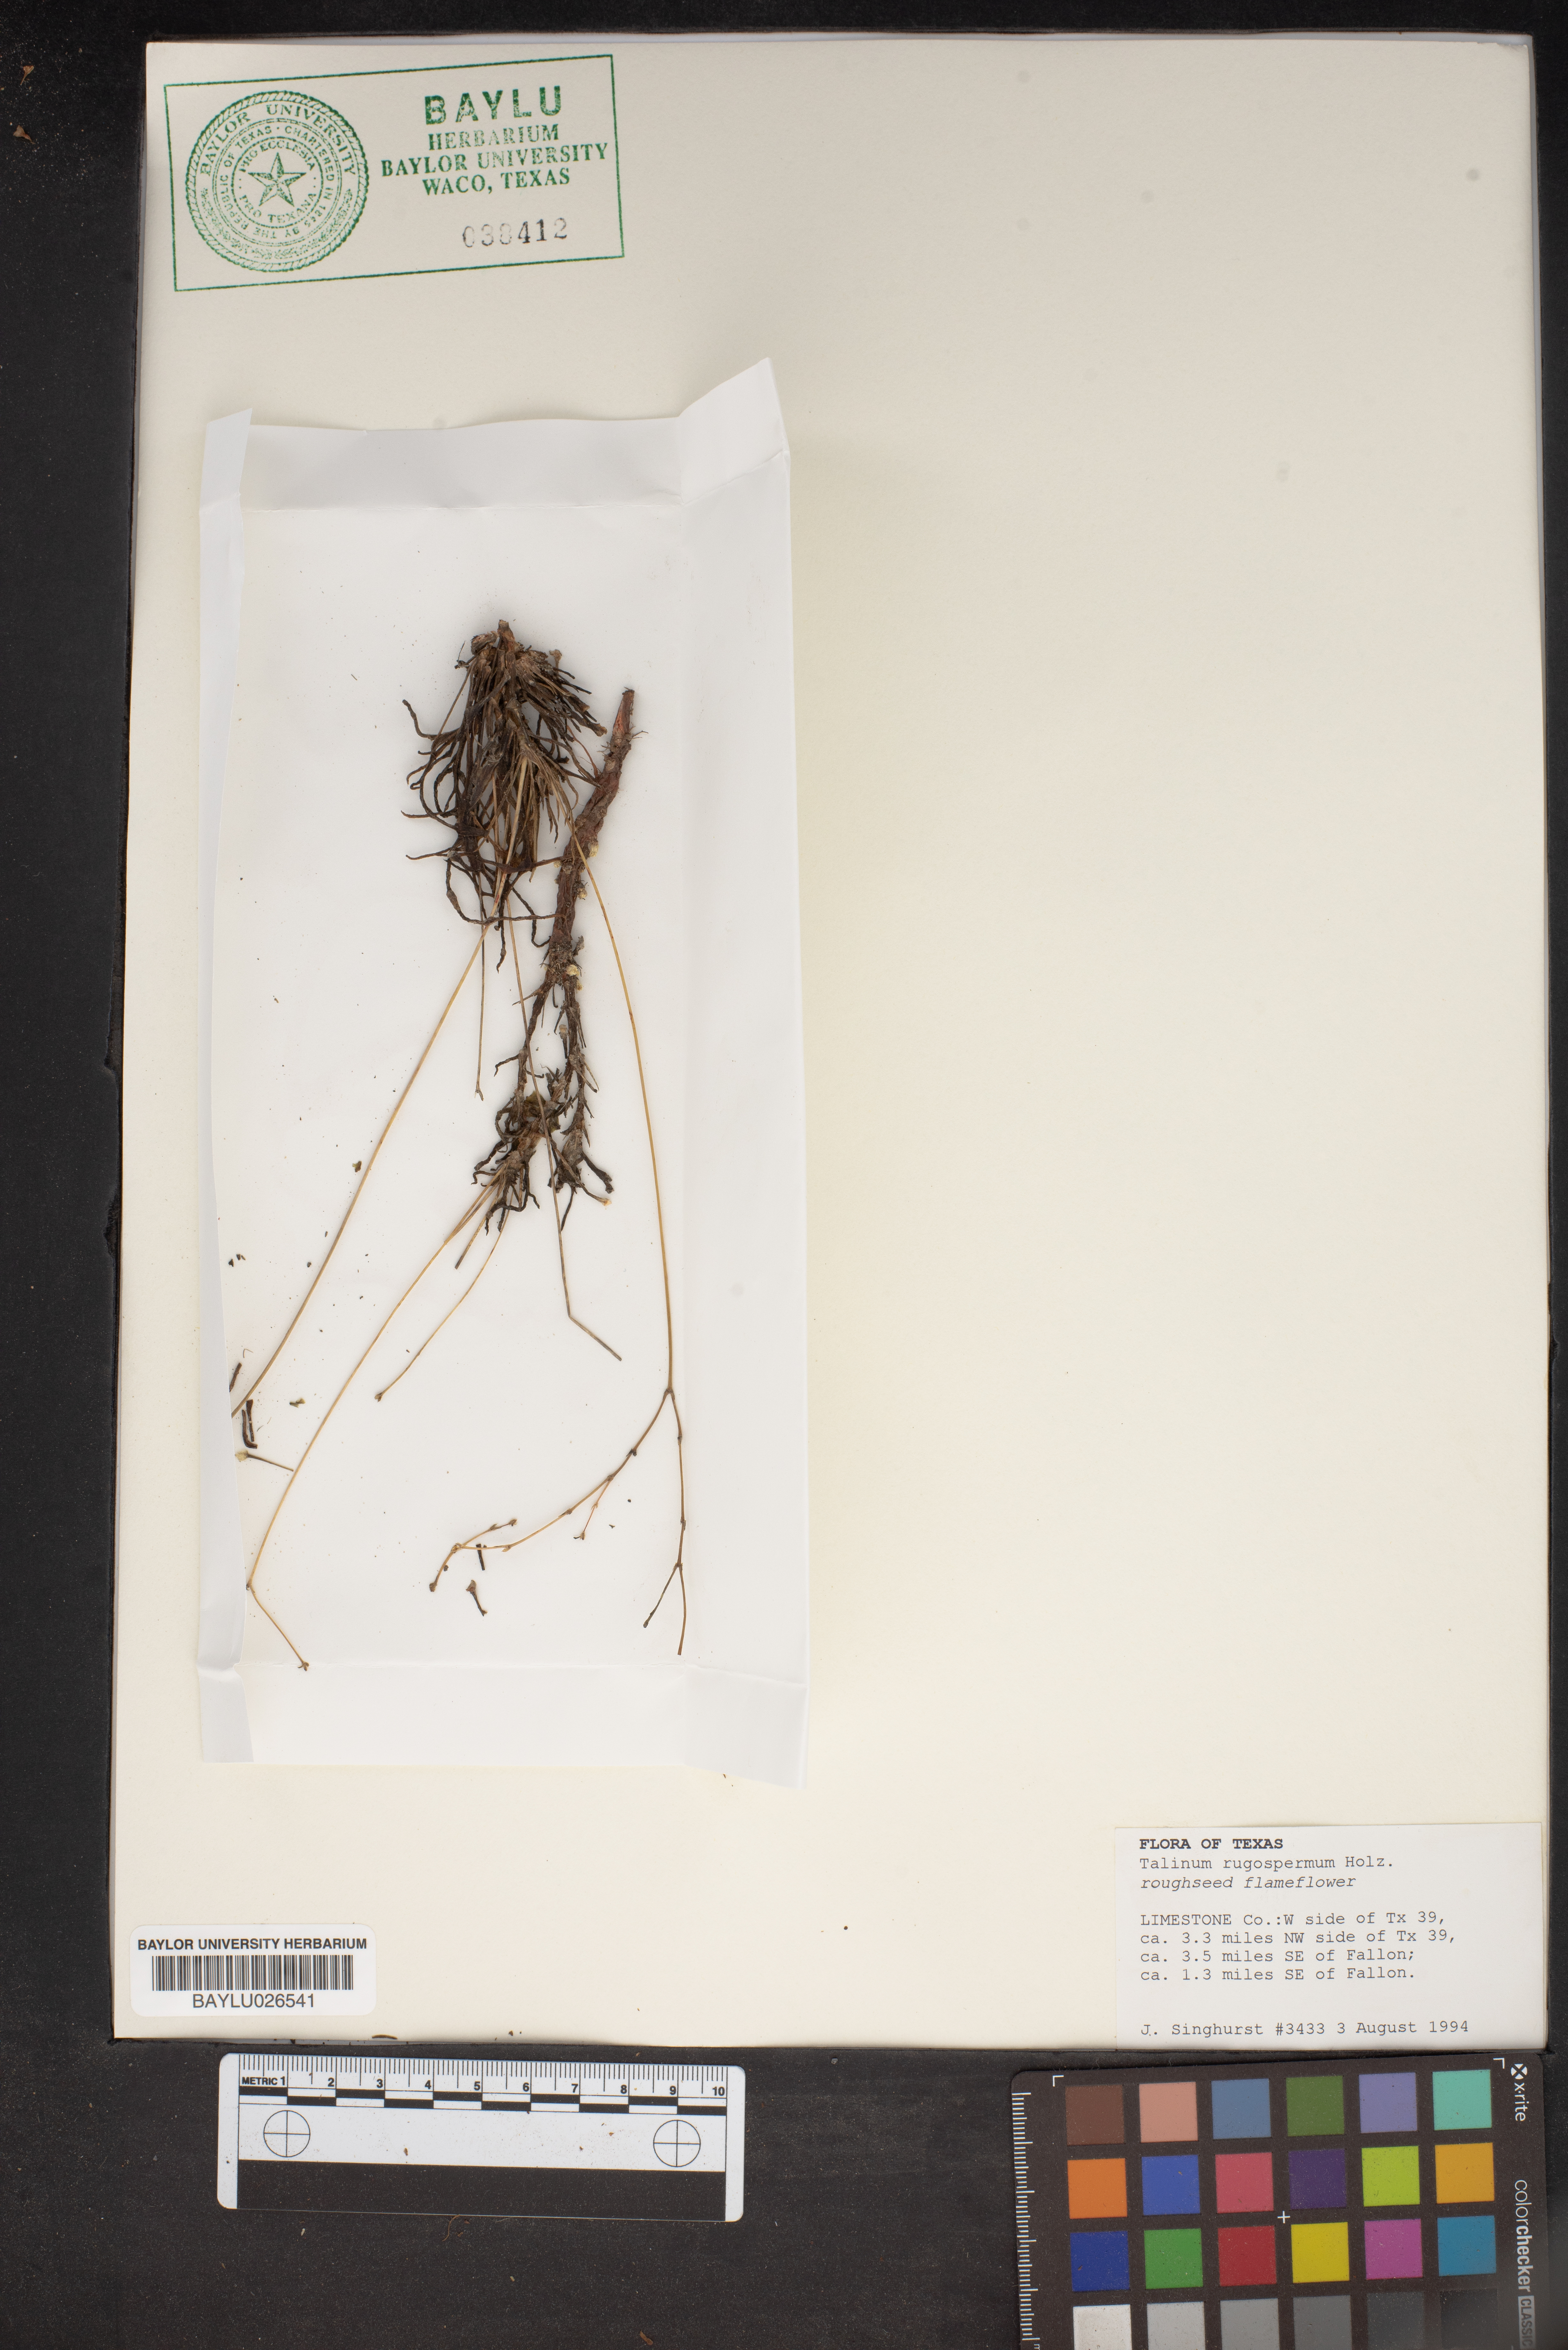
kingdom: Plantae
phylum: Tracheophyta
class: Magnoliopsida
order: Caryophyllales
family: Montiaceae
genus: Phemeranthus
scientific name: Phemeranthus rugospermus
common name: Prairie fameflower
